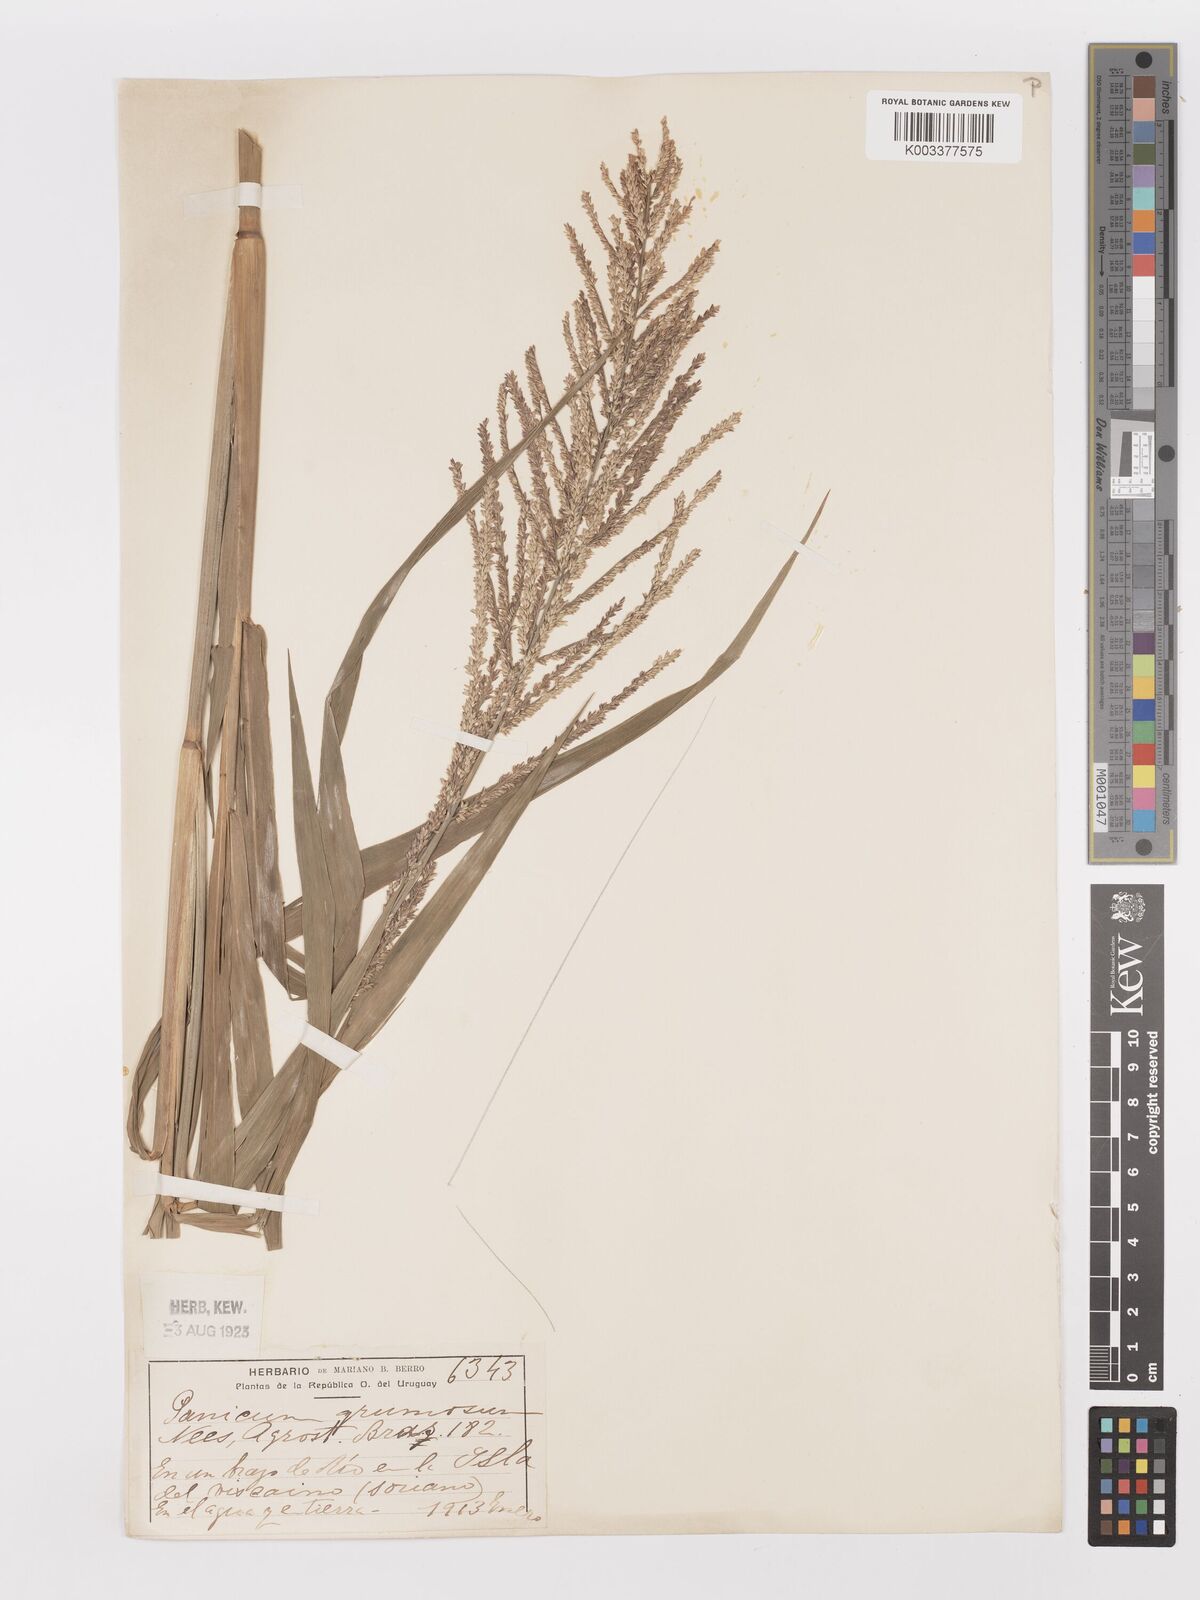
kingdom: Plantae
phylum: Tracheophyta
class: Liliopsida
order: Poales
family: Poaceae
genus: Urochloa
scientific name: Urochloa reptans
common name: Sprawling signalgrass
